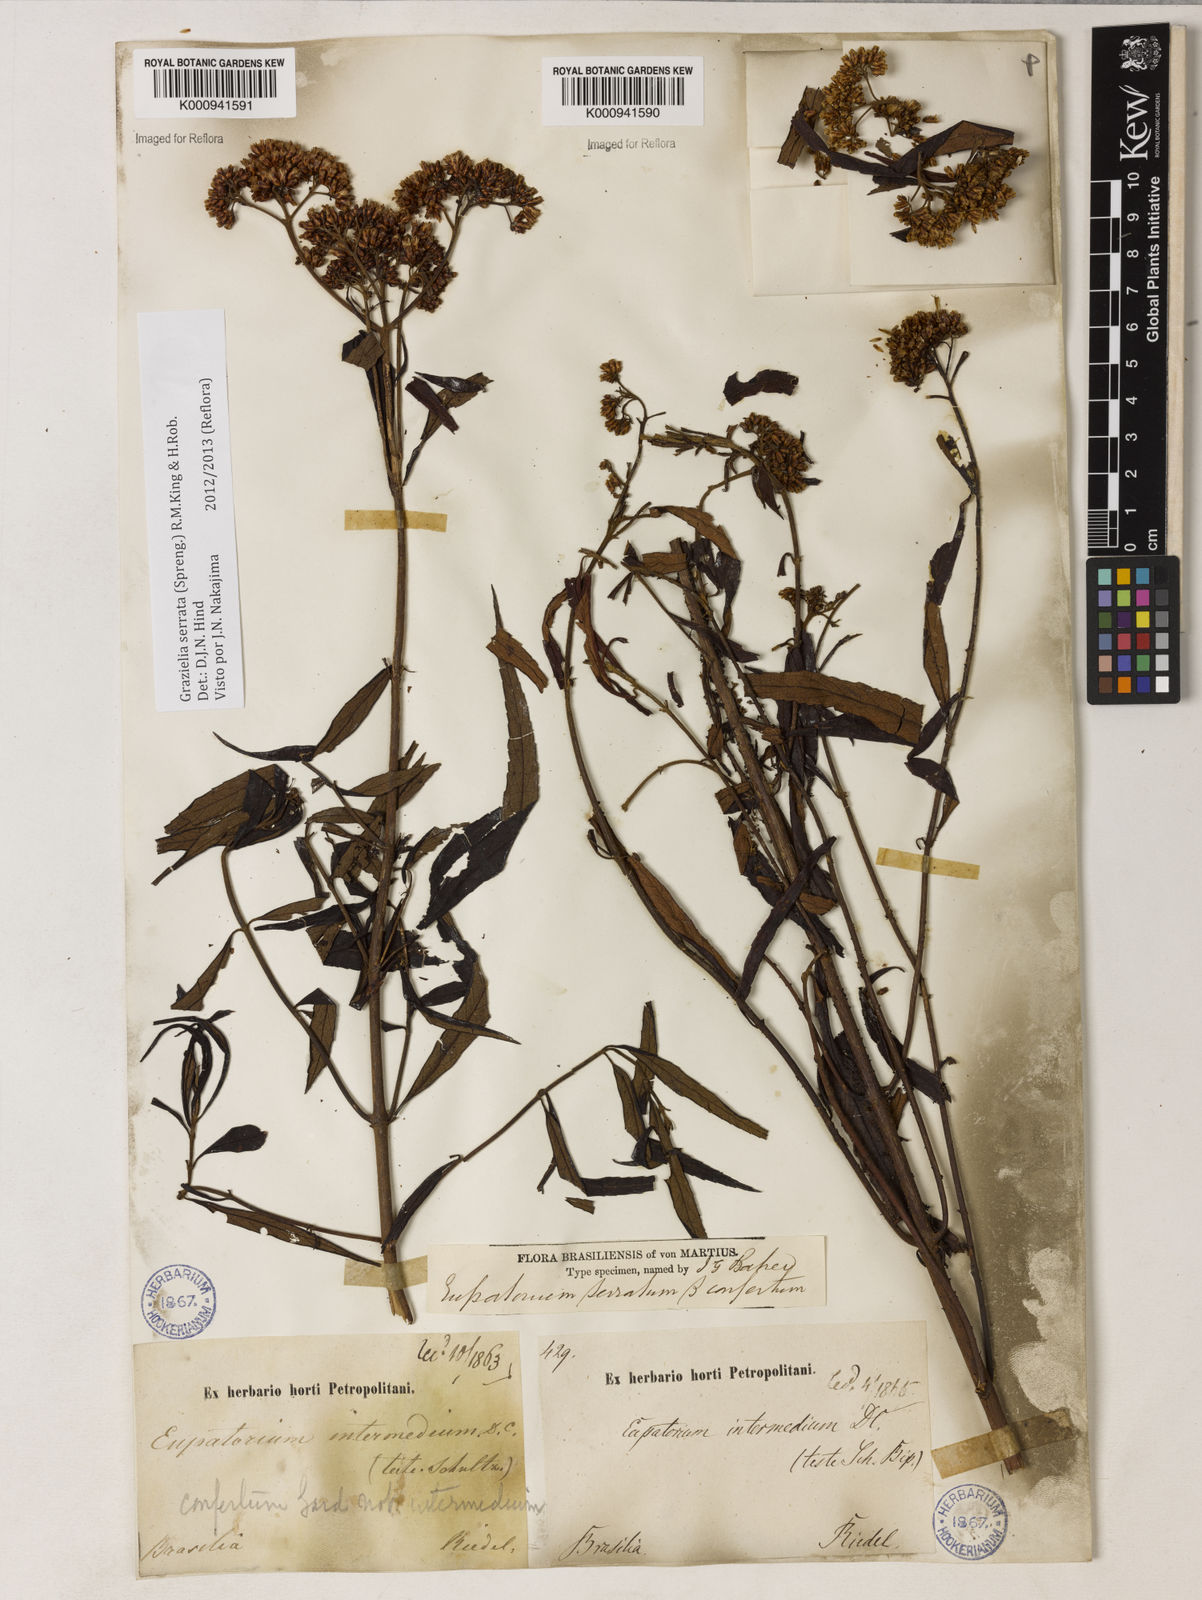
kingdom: Plantae
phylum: Tracheophyta
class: Magnoliopsida
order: Asterales
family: Asteraceae
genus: Grazielia
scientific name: Grazielia serrata
